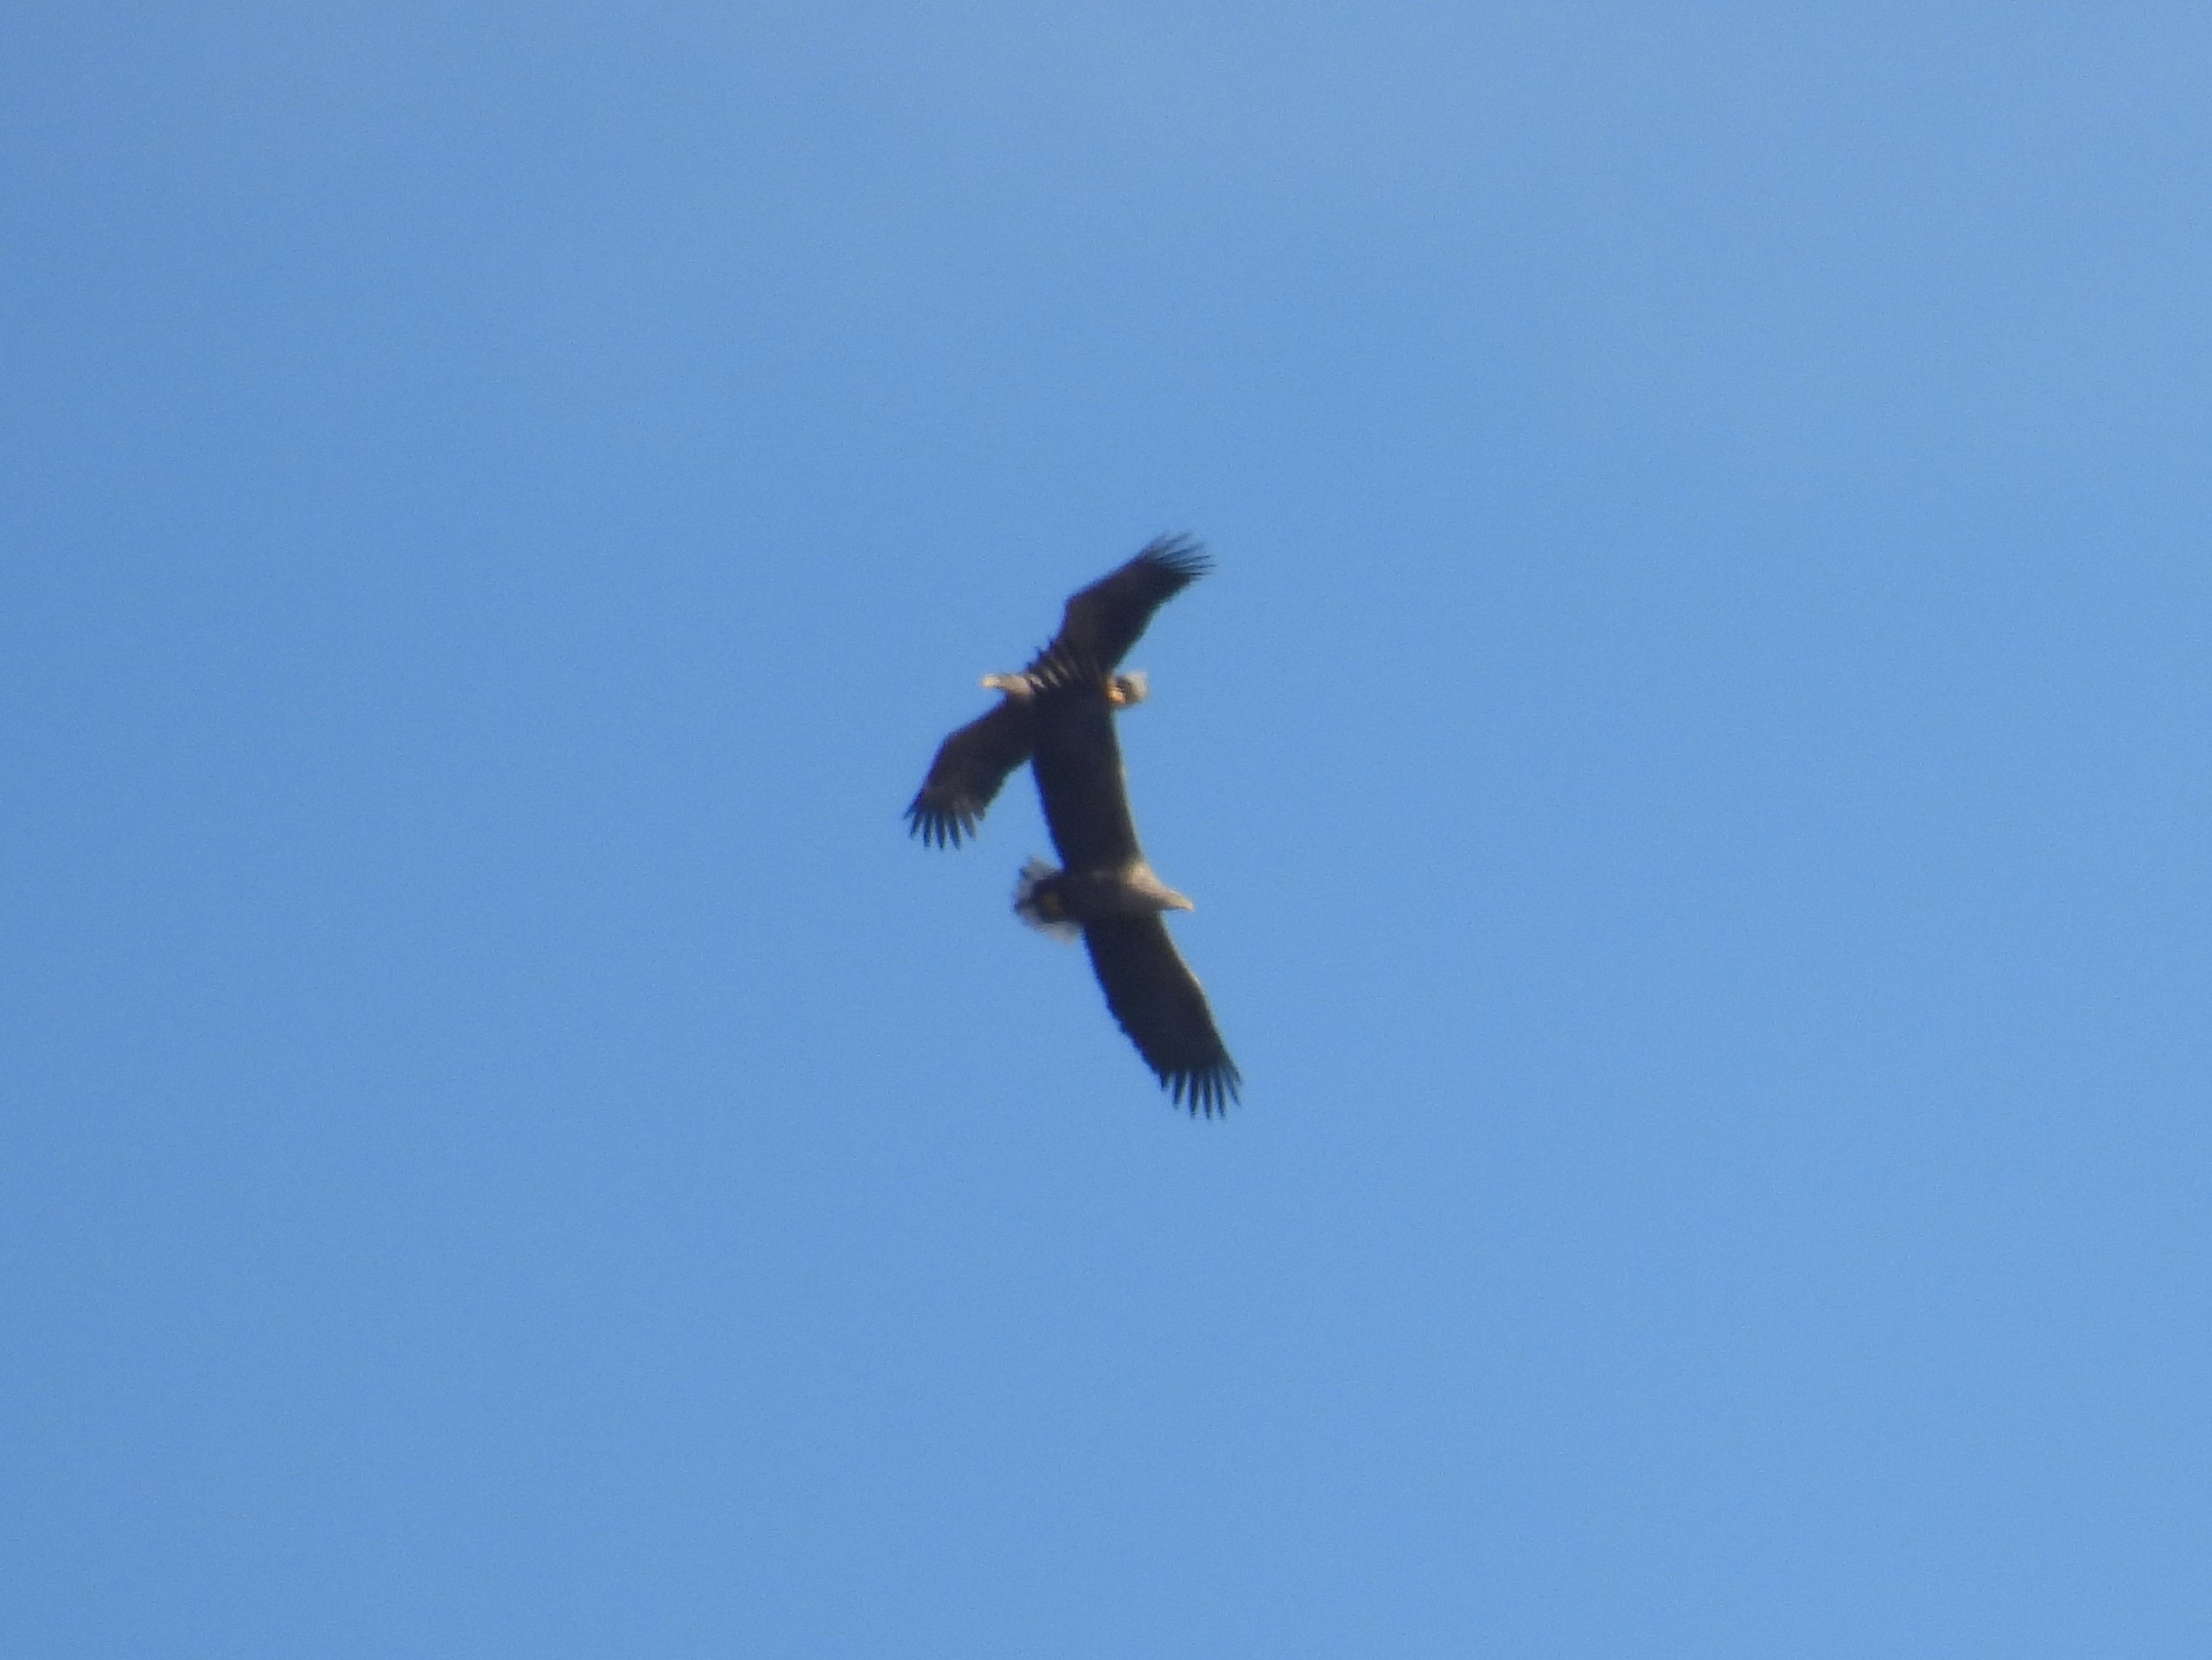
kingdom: Animalia
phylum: Chordata
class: Aves
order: Accipitriformes
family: Accipitridae
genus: Haliaeetus
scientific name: Haliaeetus albicilla
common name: Havørn
